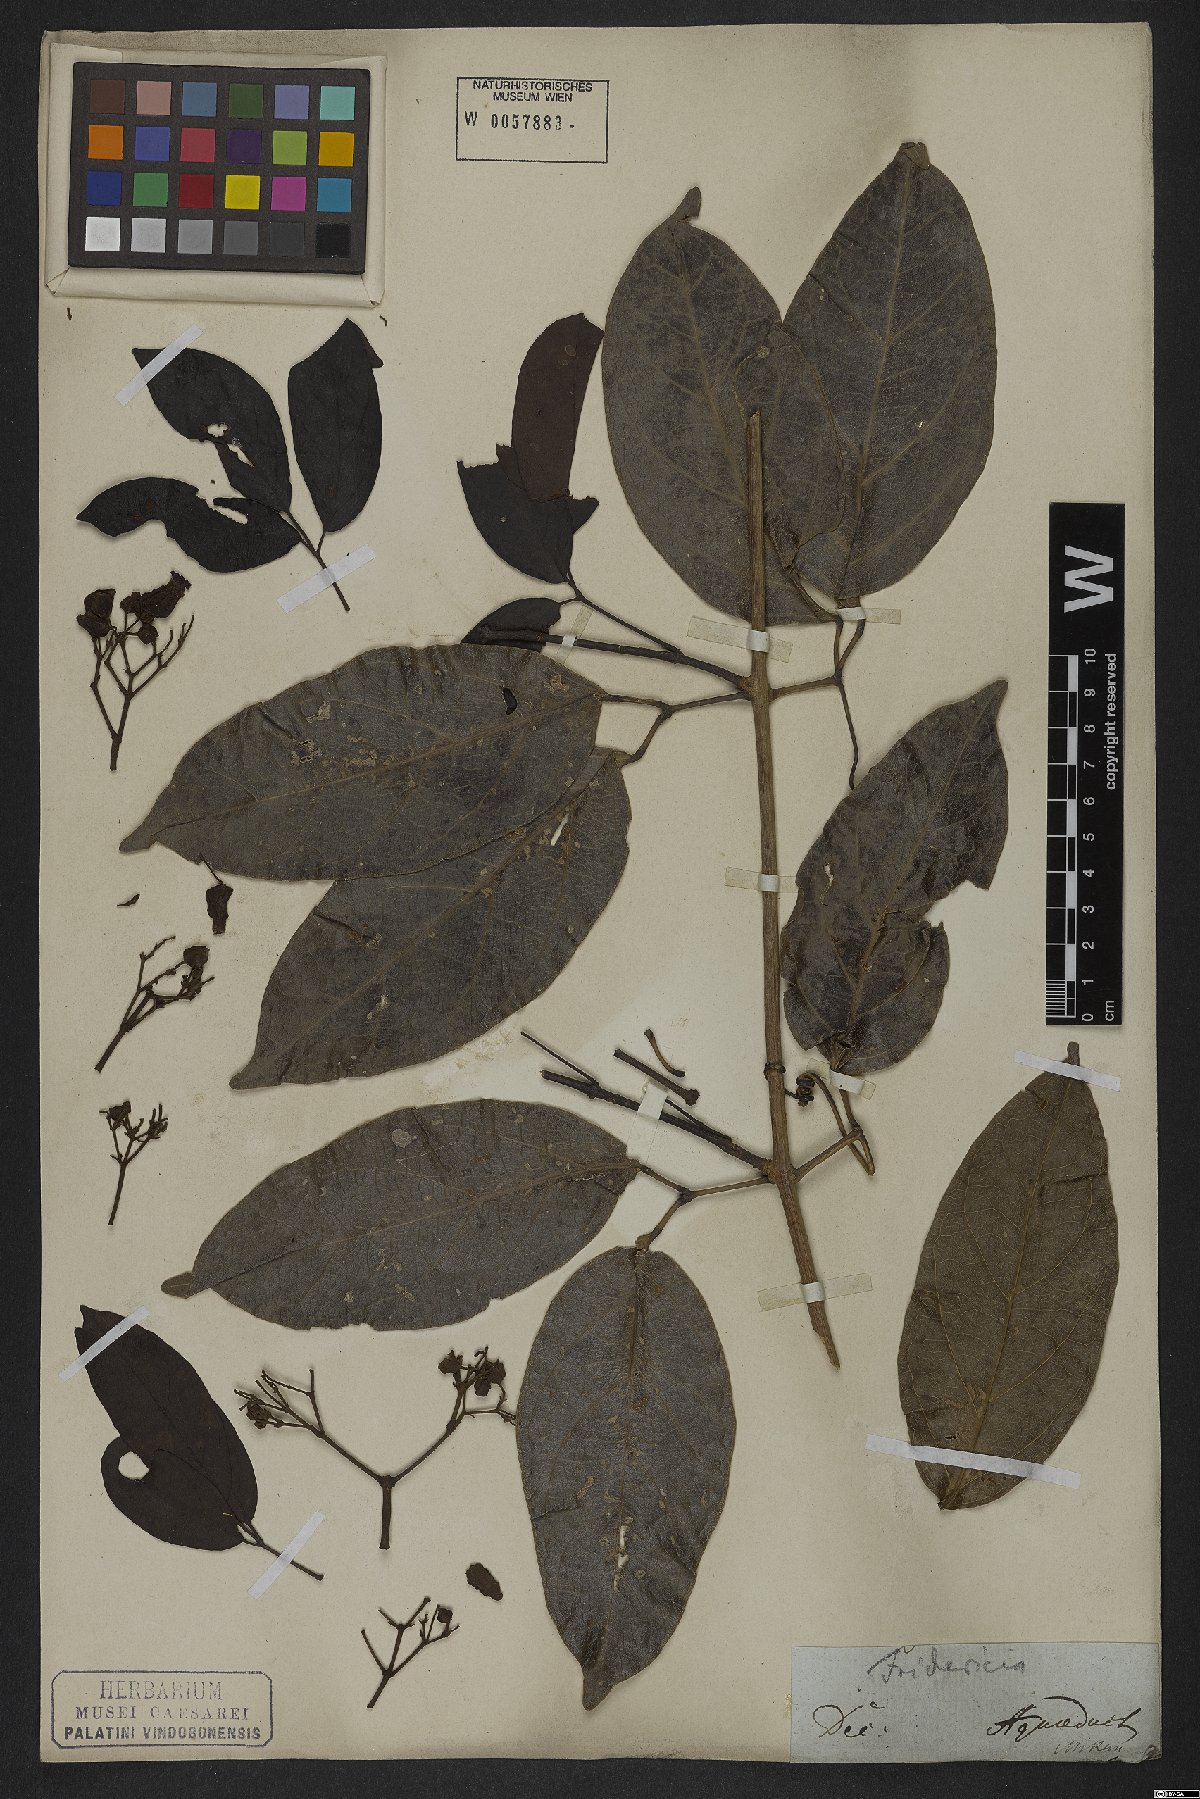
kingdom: Plantae
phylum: Tracheophyta
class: Magnoliopsida
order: Lamiales
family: Bignoniaceae
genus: Fridericia
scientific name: Fridericia speciosa
